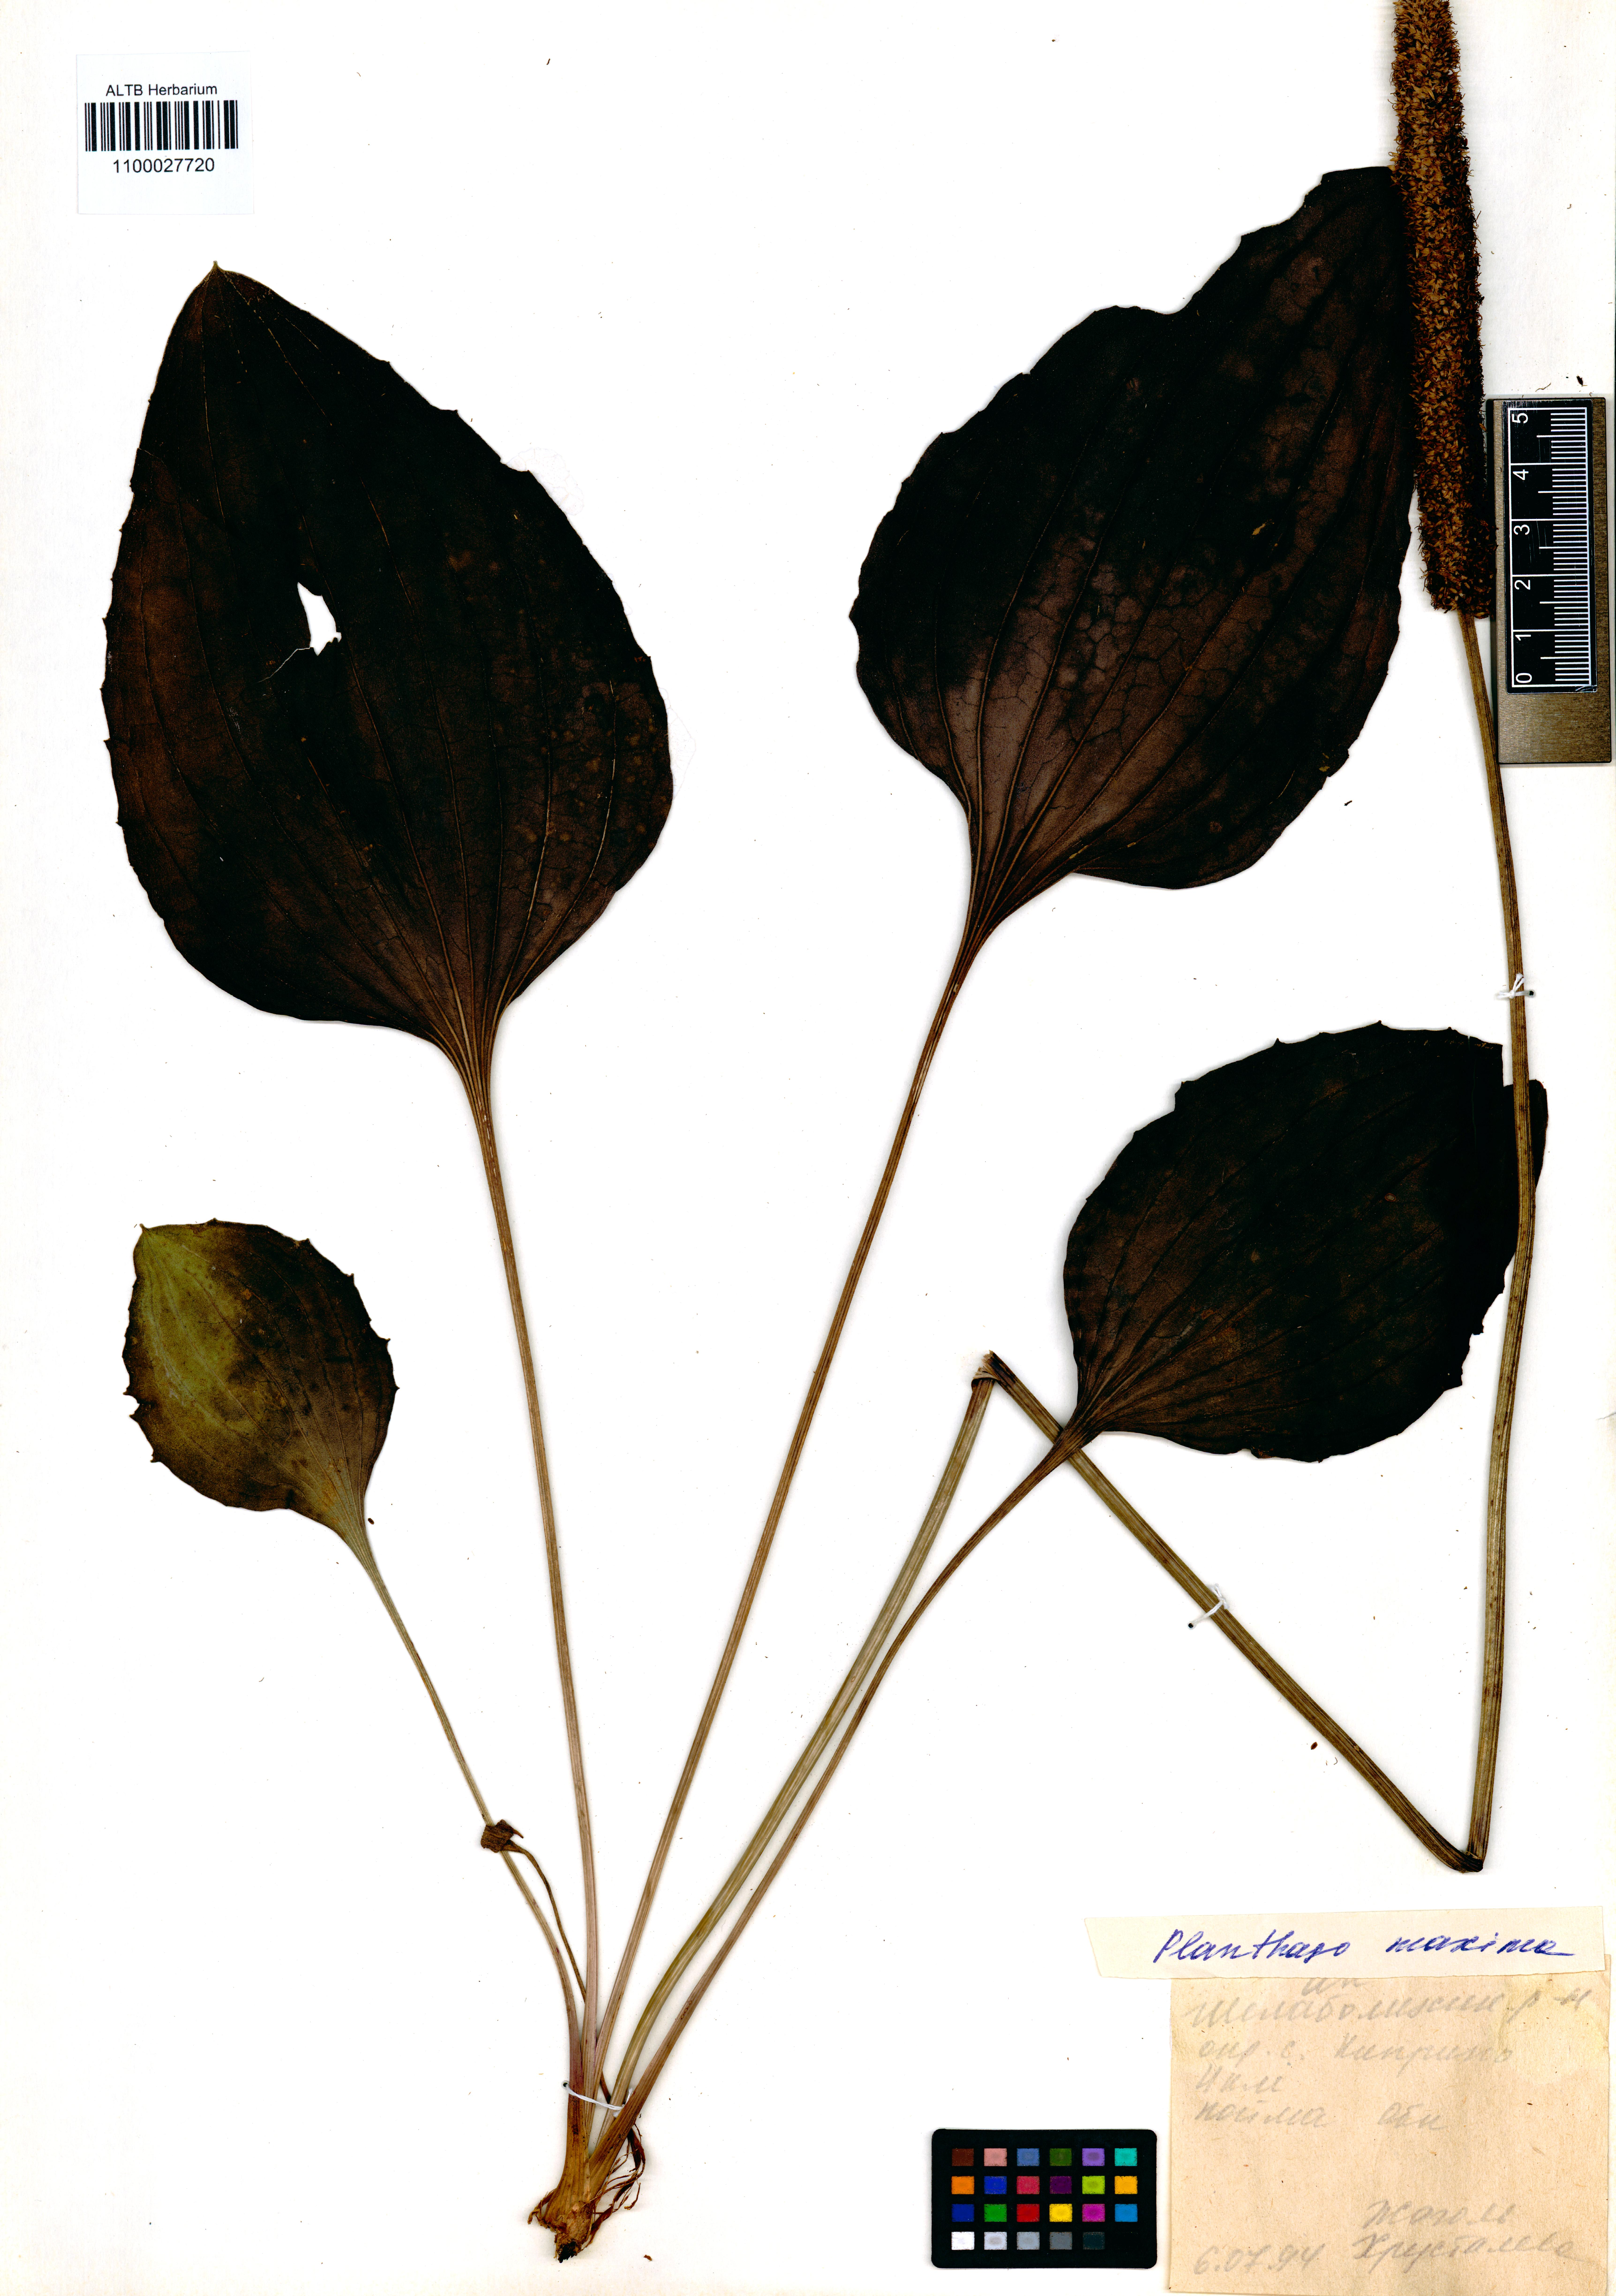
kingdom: Plantae
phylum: Tracheophyta
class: Magnoliopsida
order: Lamiales
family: Plantaginaceae
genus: Plantago
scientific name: Plantago maxima
